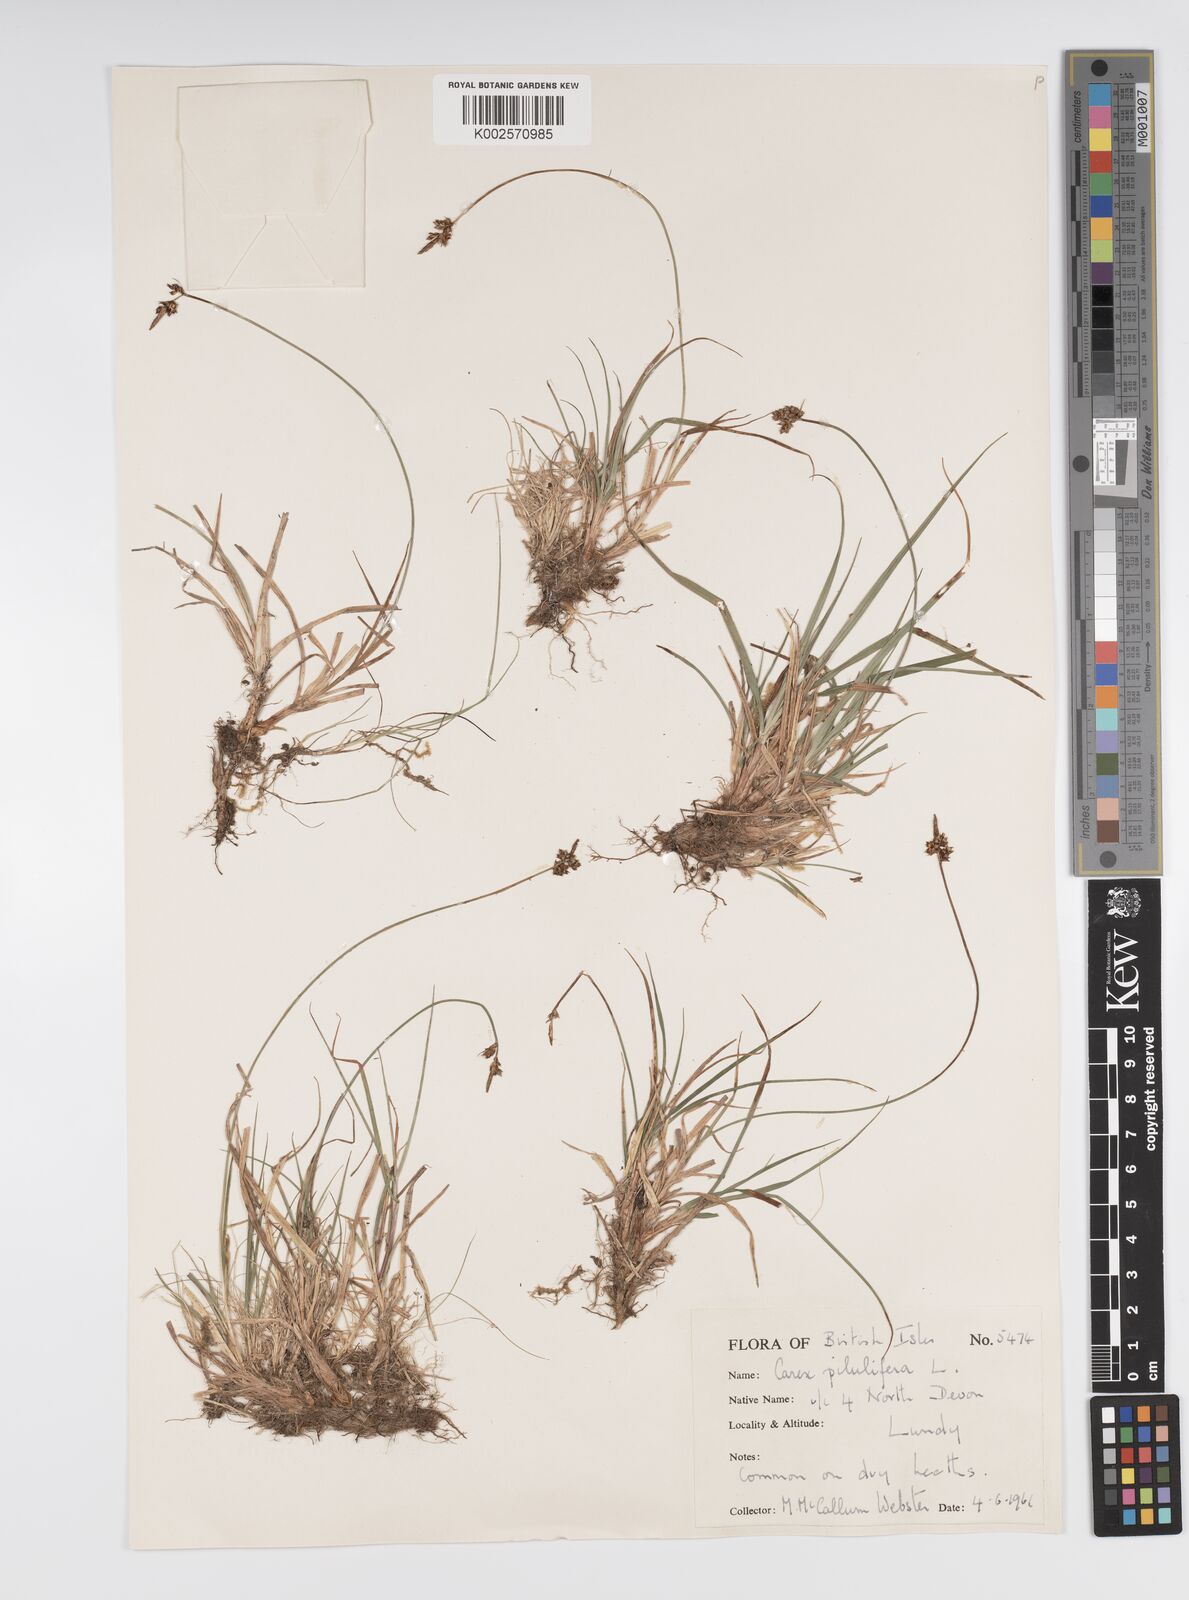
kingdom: Plantae
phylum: Tracheophyta
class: Liliopsida
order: Poales
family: Cyperaceae
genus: Carex
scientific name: Carex praecox
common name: Early sedge
